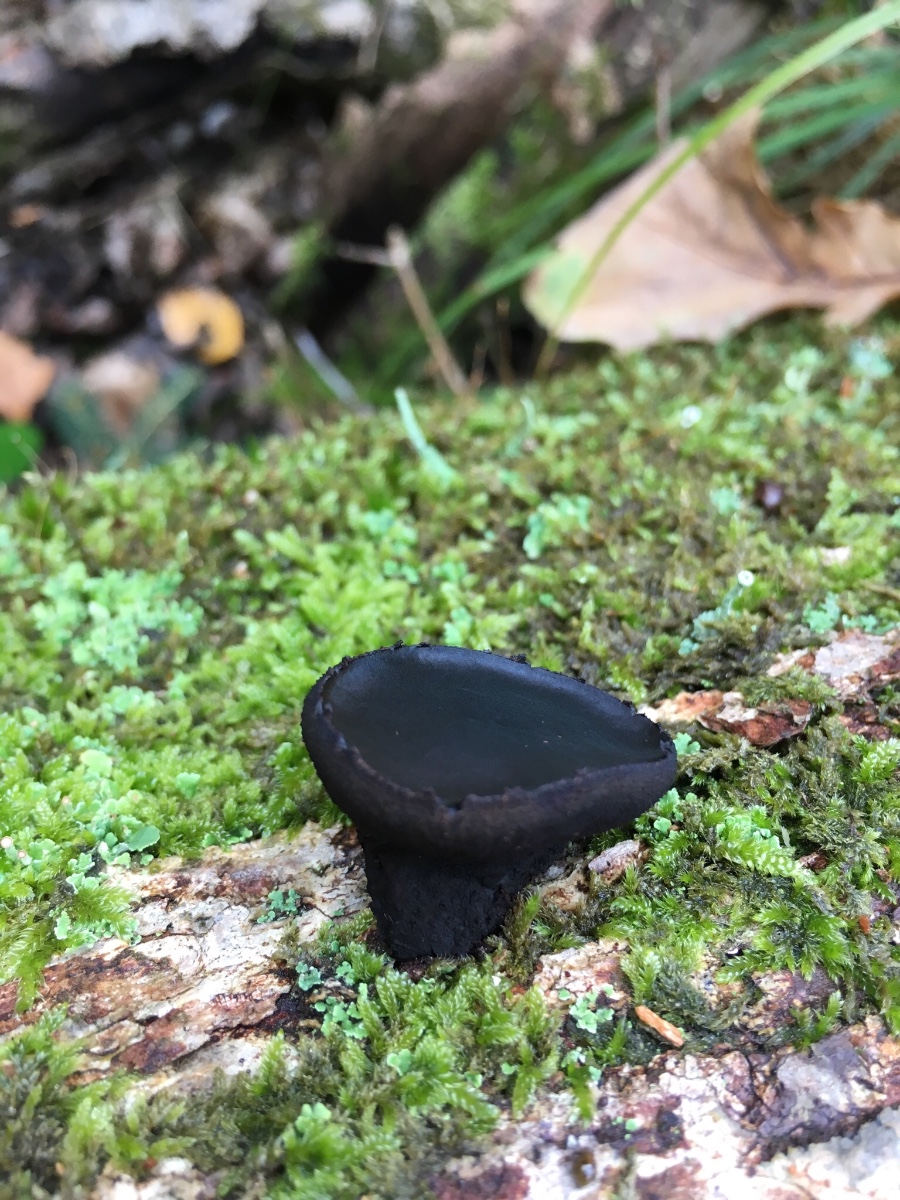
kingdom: Fungi
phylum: Ascomycota
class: Leotiomycetes
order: Phacidiales
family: Phacidiaceae
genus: Bulgaria
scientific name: Bulgaria inquinans
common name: afsmittende topsvamp
